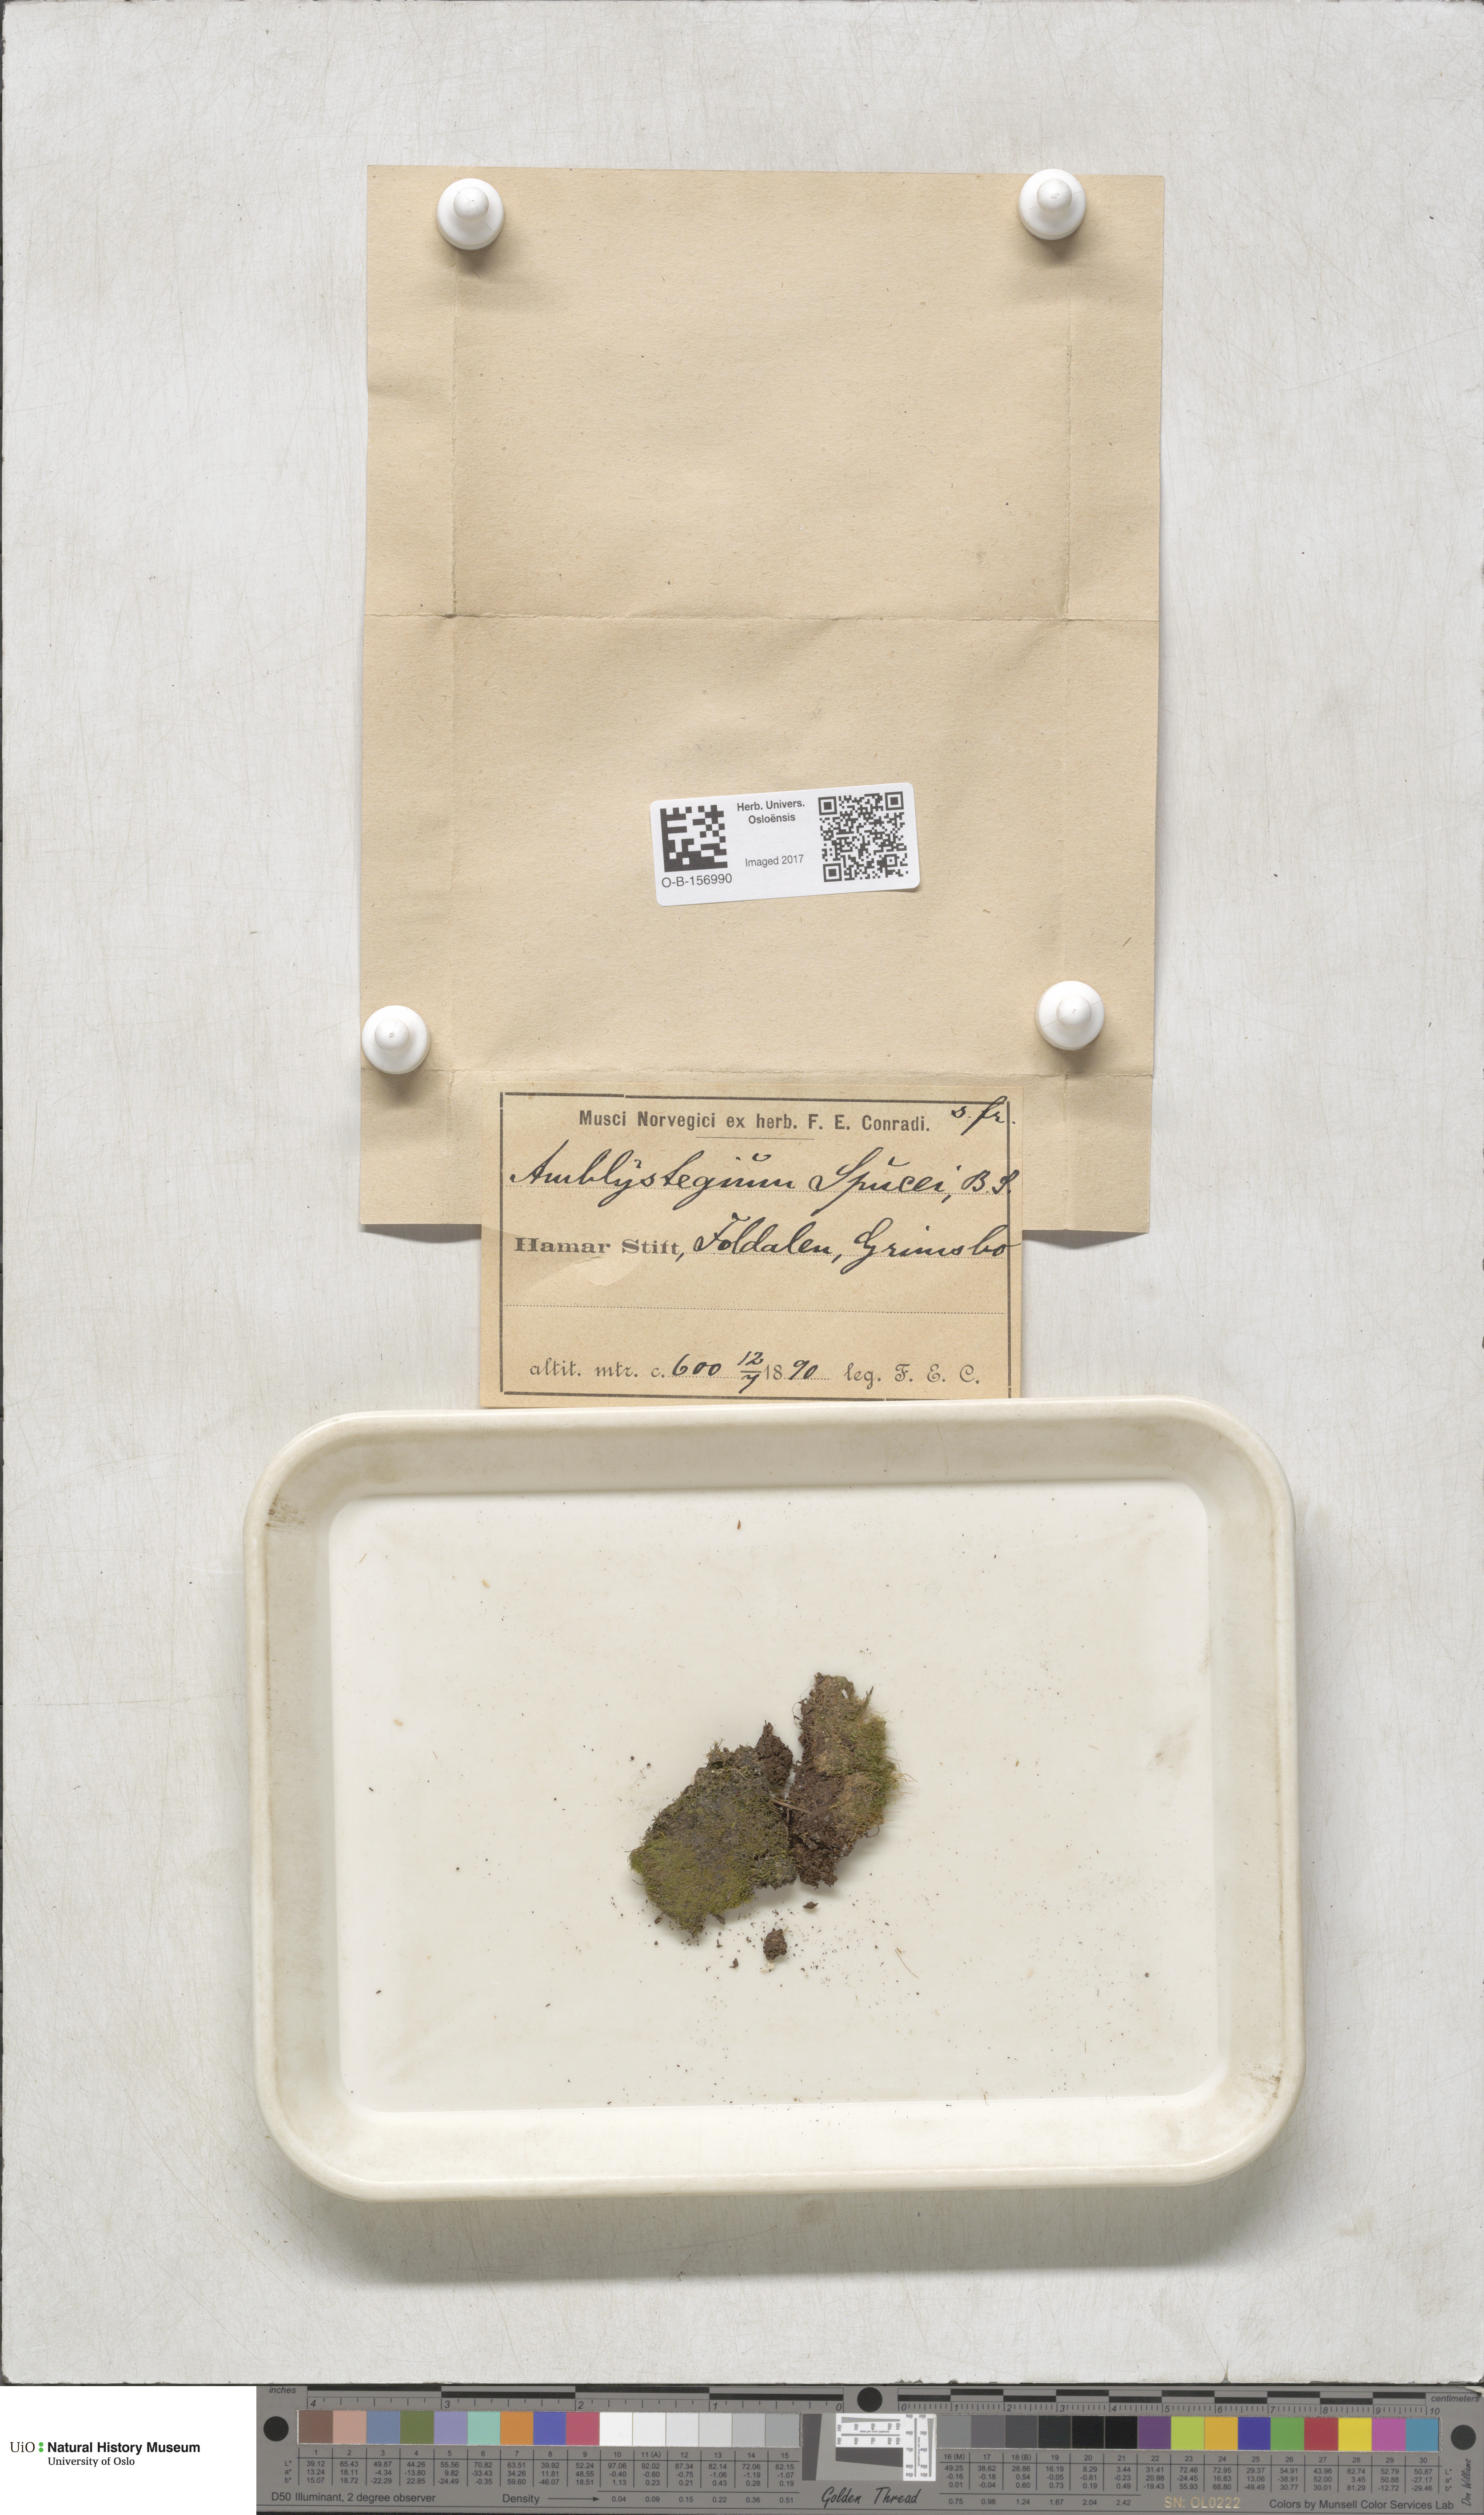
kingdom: Plantae
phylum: Bryophyta
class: Bryopsida
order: Hypnales
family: Plagiotheciaceae
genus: Platydictya
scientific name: Platydictya jungermannioides
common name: False willow moss
